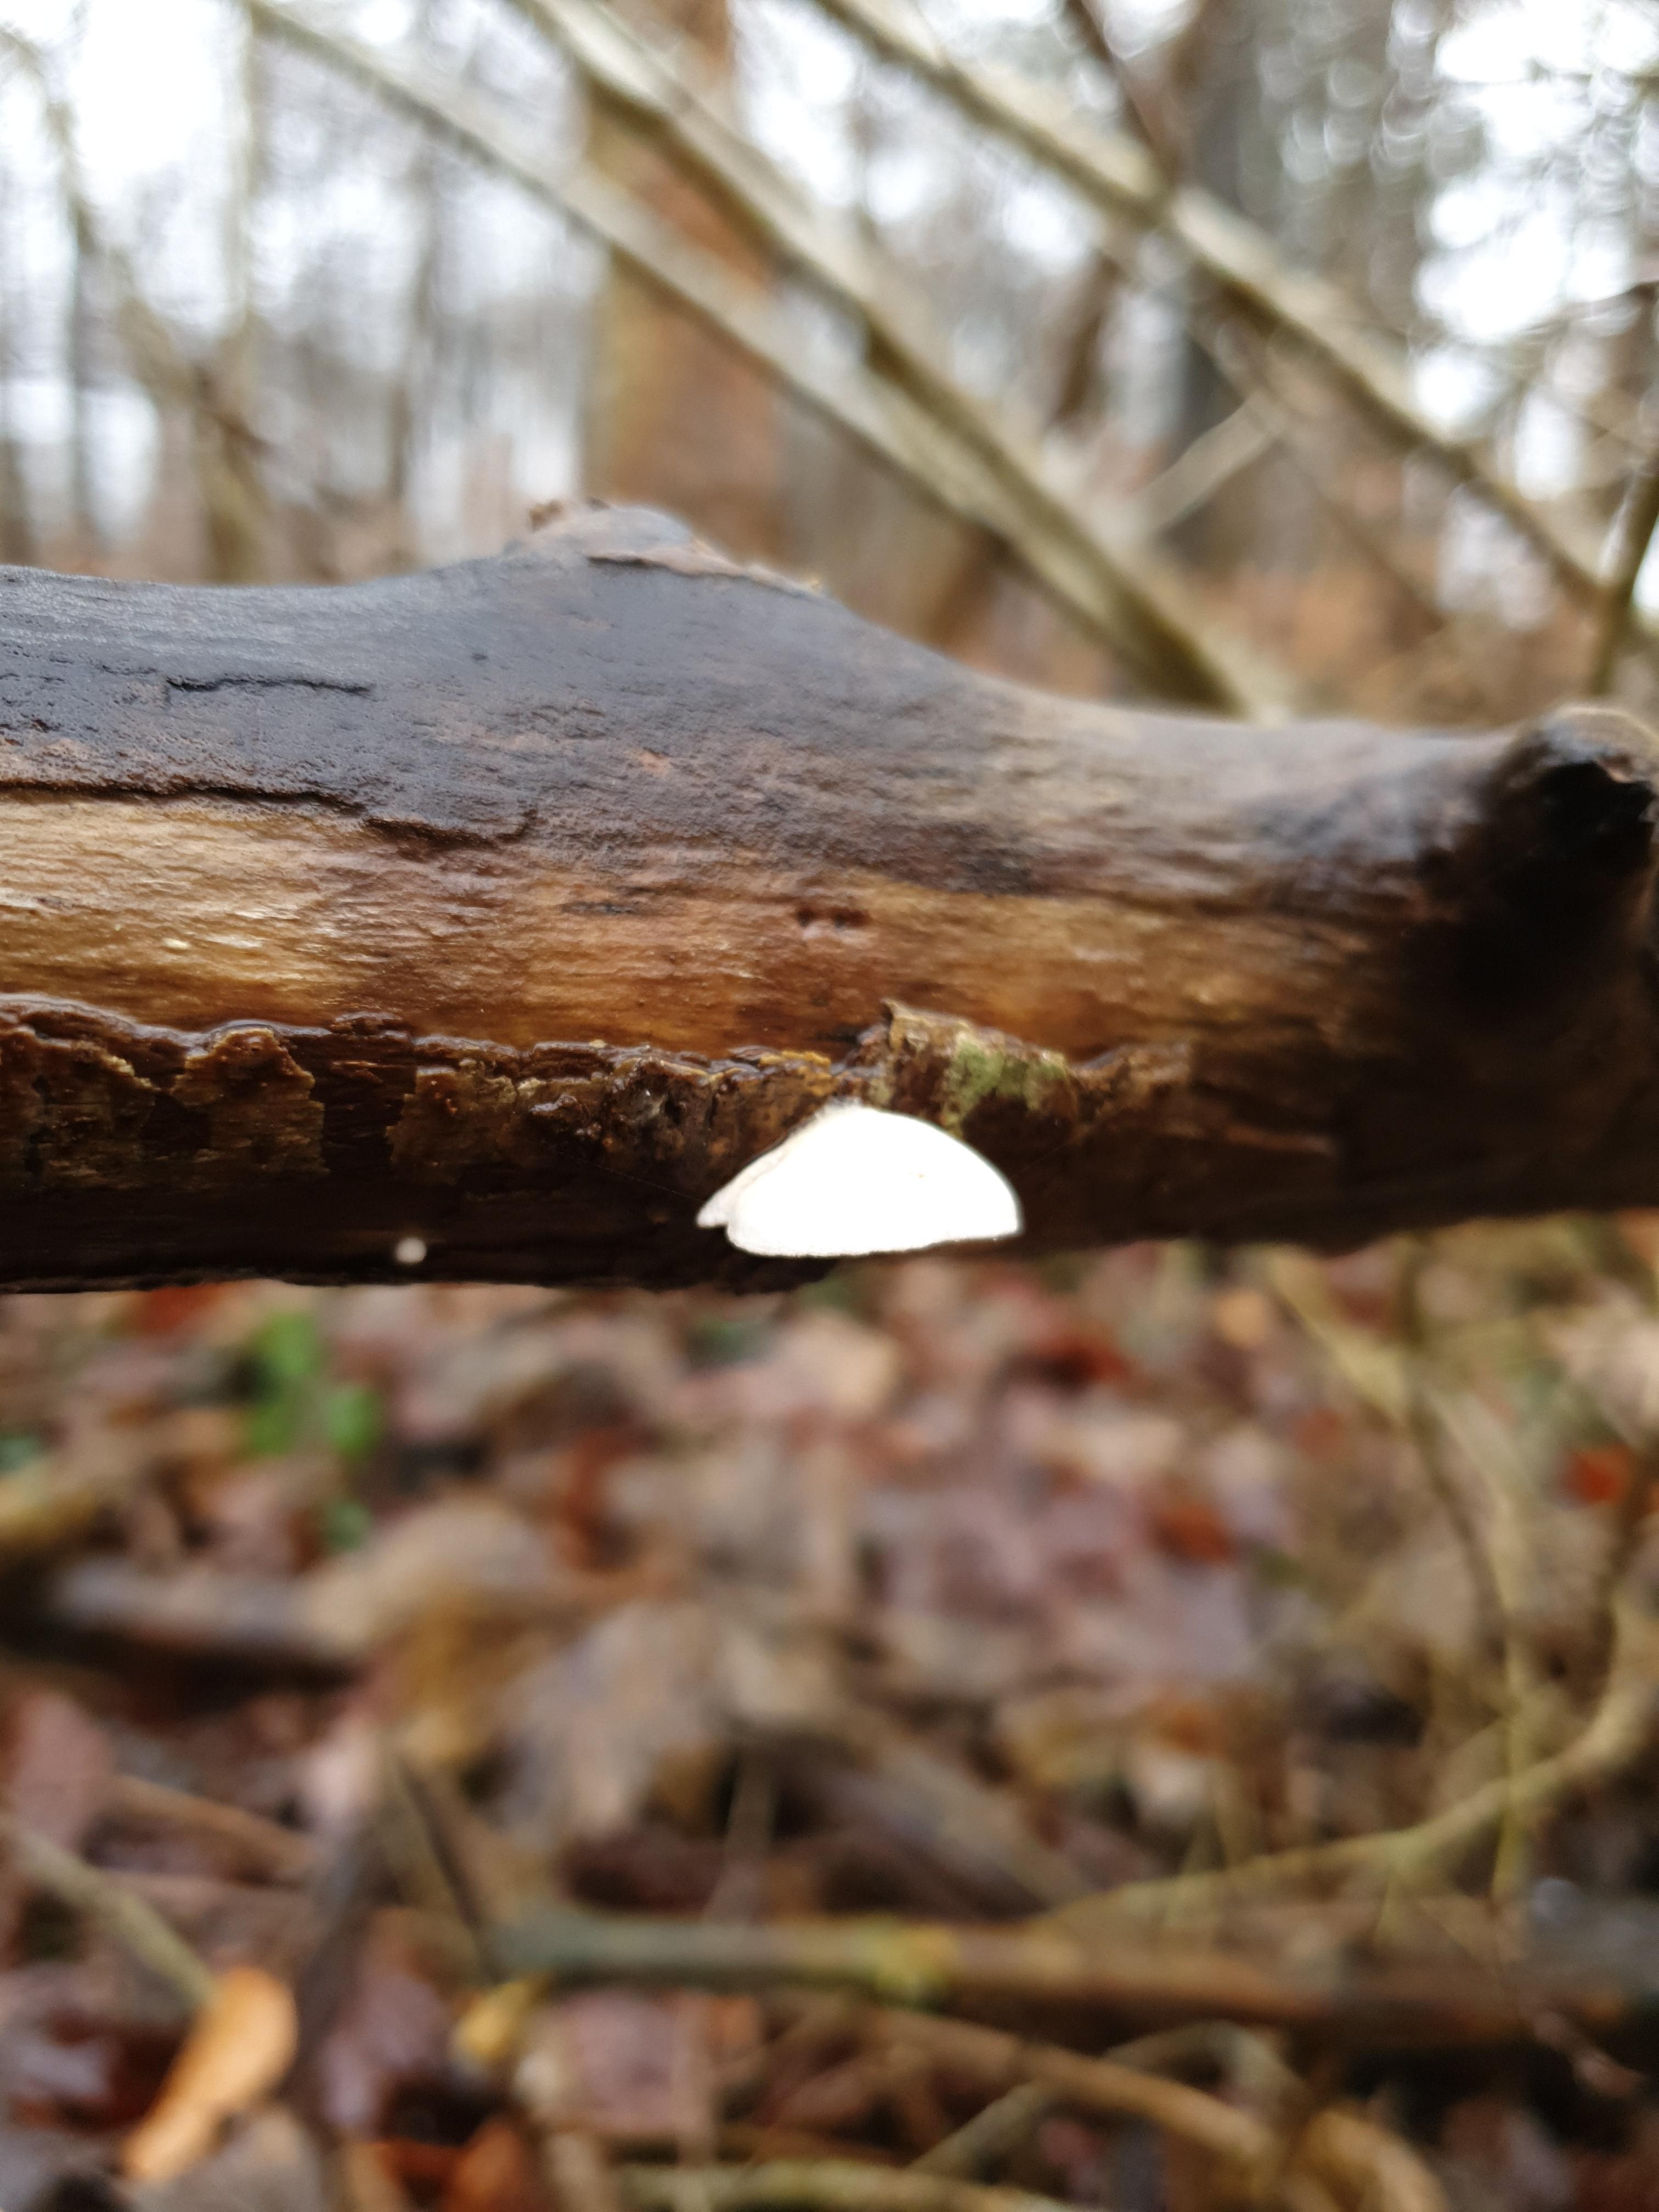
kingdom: Fungi
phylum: Basidiomycota
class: Agaricomycetes
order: Agaricales
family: Crepidotaceae
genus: Crepidotus
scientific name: Crepidotus
